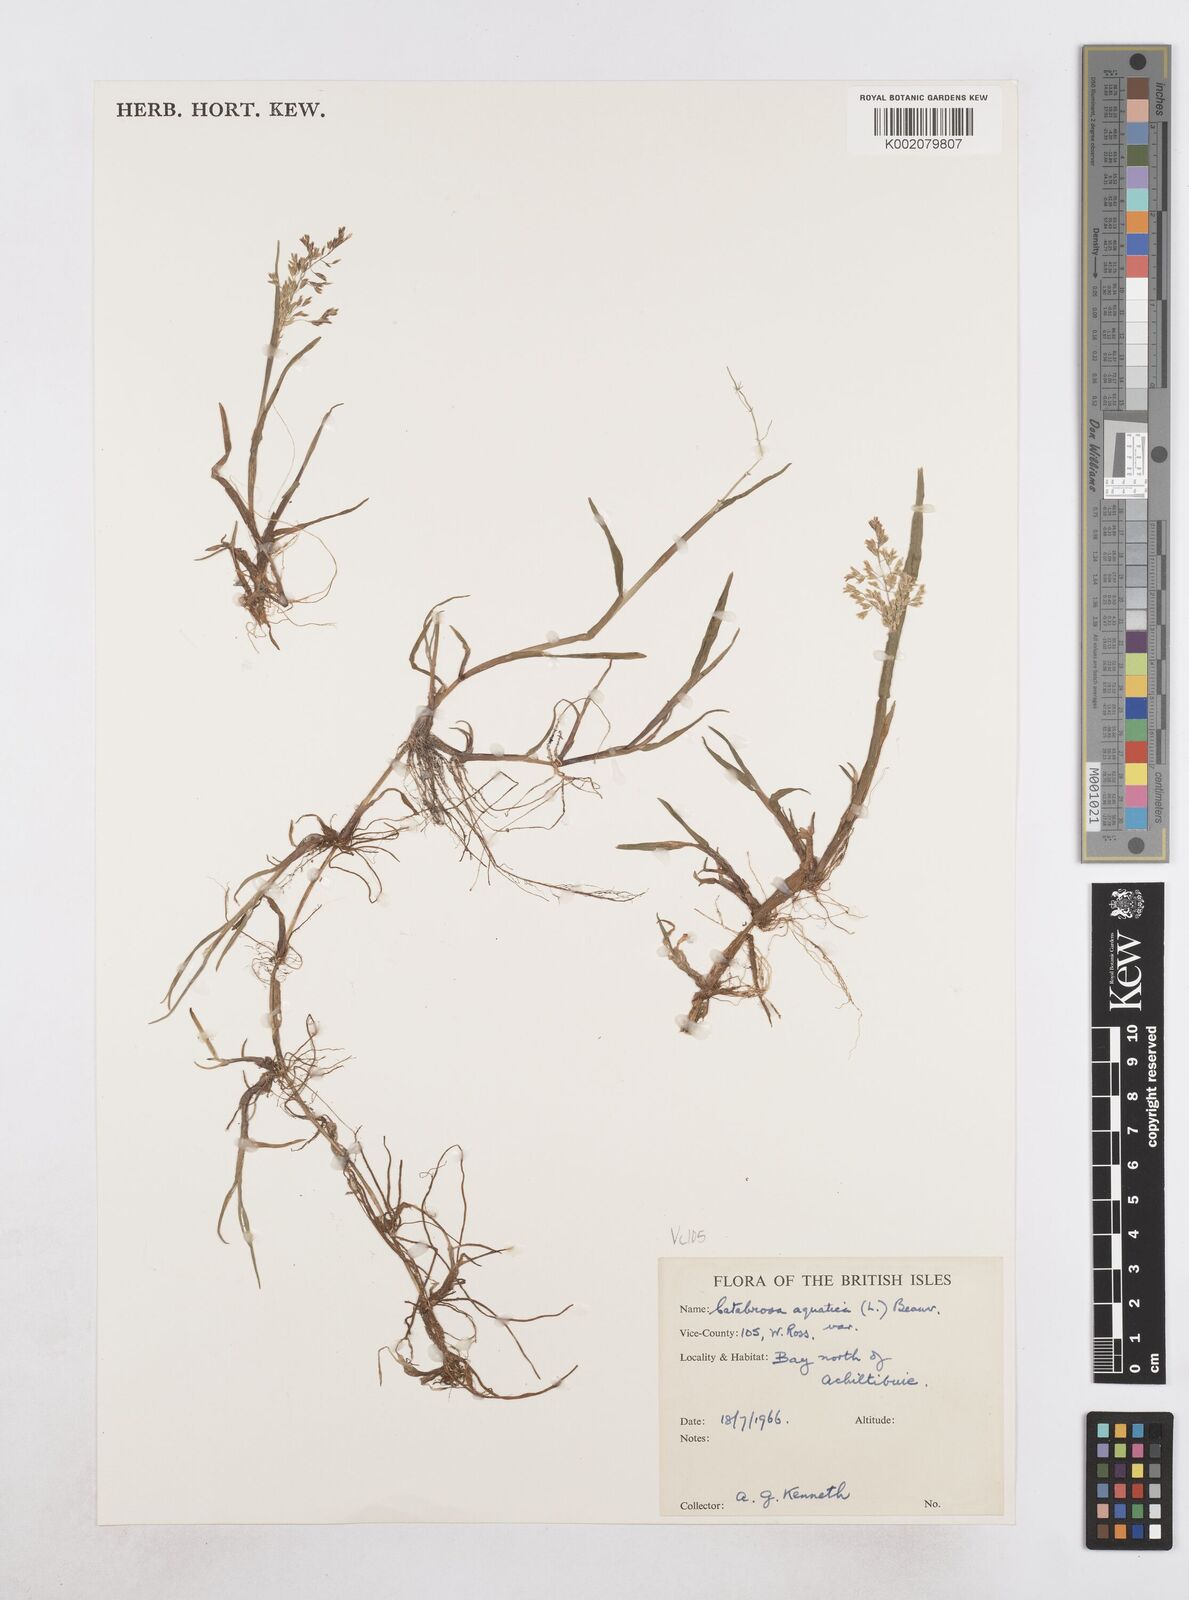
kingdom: Plantae
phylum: Tracheophyta
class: Liliopsida
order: Poales
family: Poaceae
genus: Catabrosa
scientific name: Catabrosa aquatica
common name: Whorl-grass
